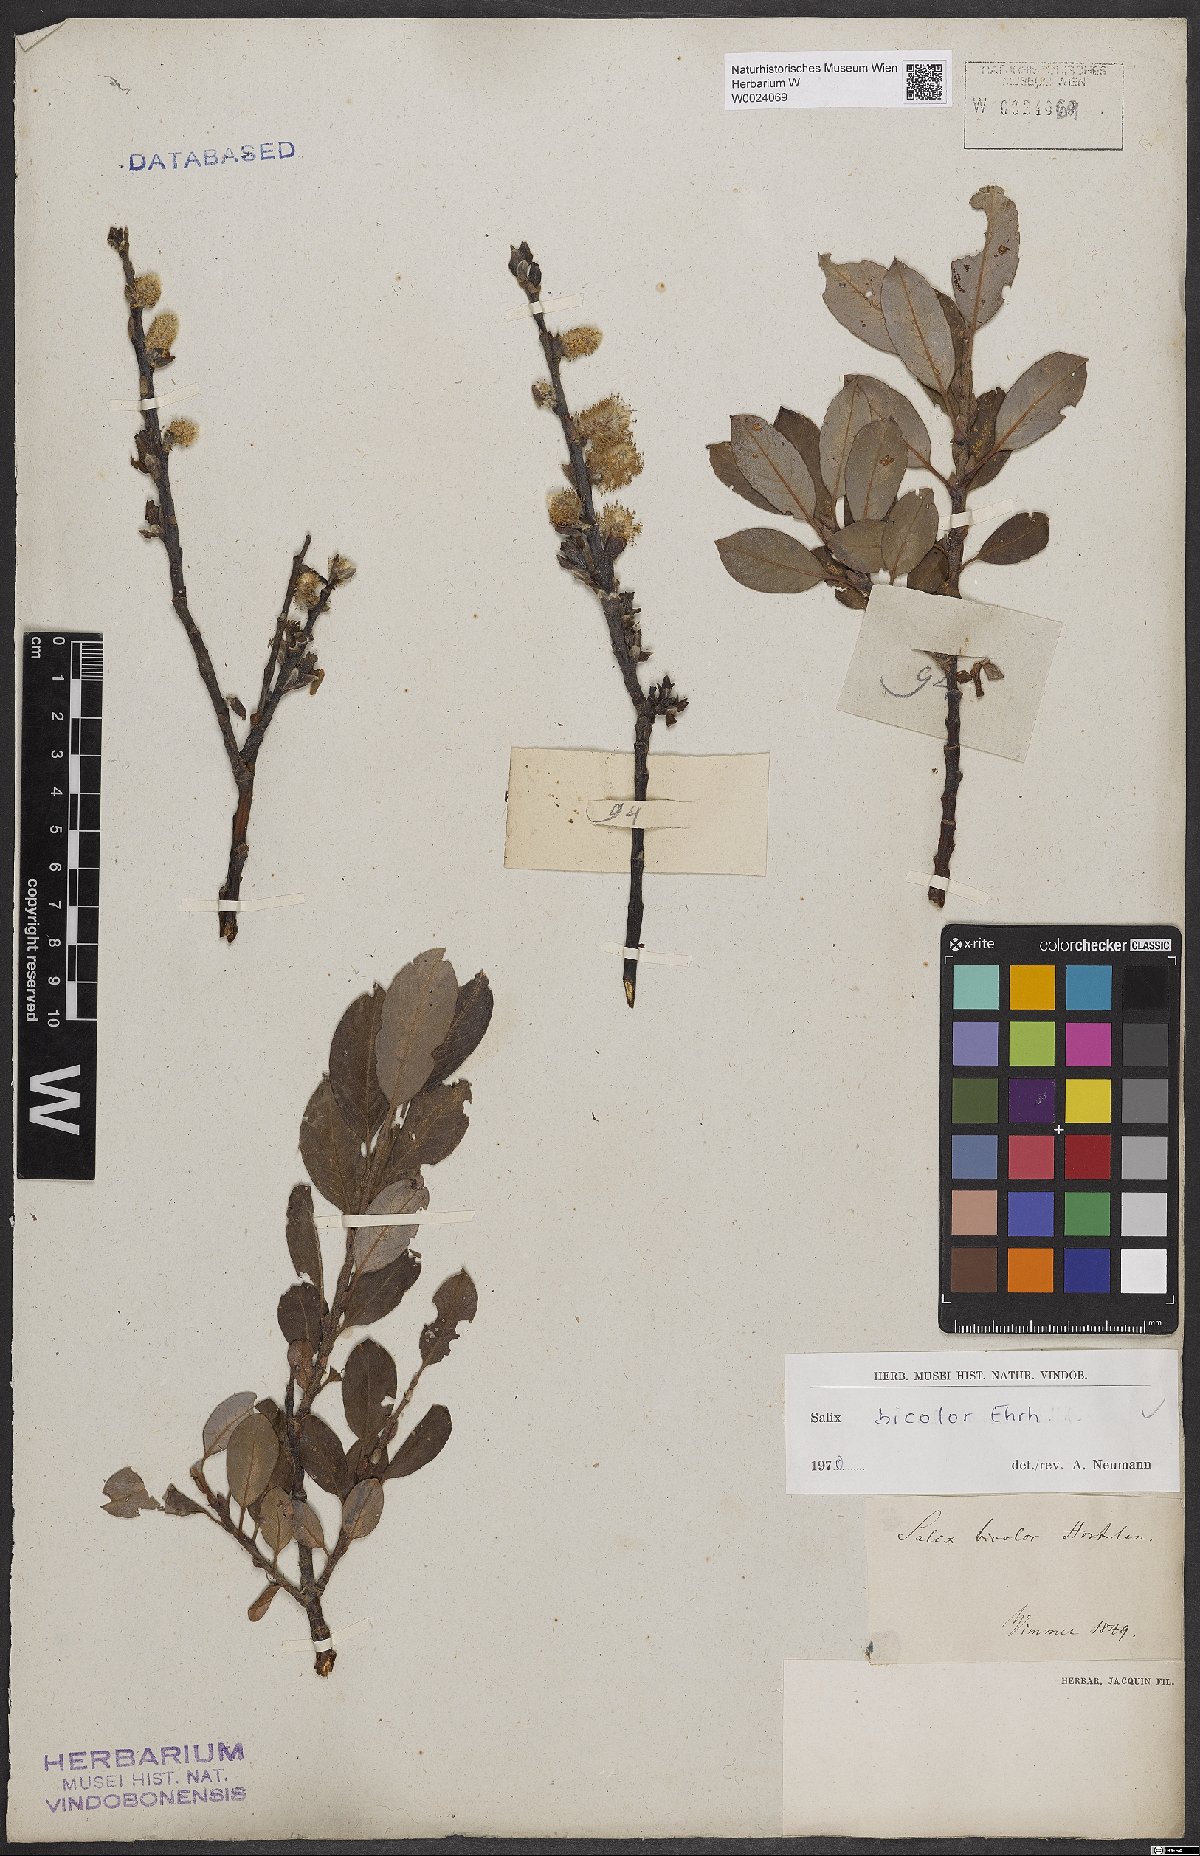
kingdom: Plantae
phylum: Tracheophyta
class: Magnoliopsida
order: Malpighiales
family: Salicaceae
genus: Salix
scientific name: Salix bicolor
